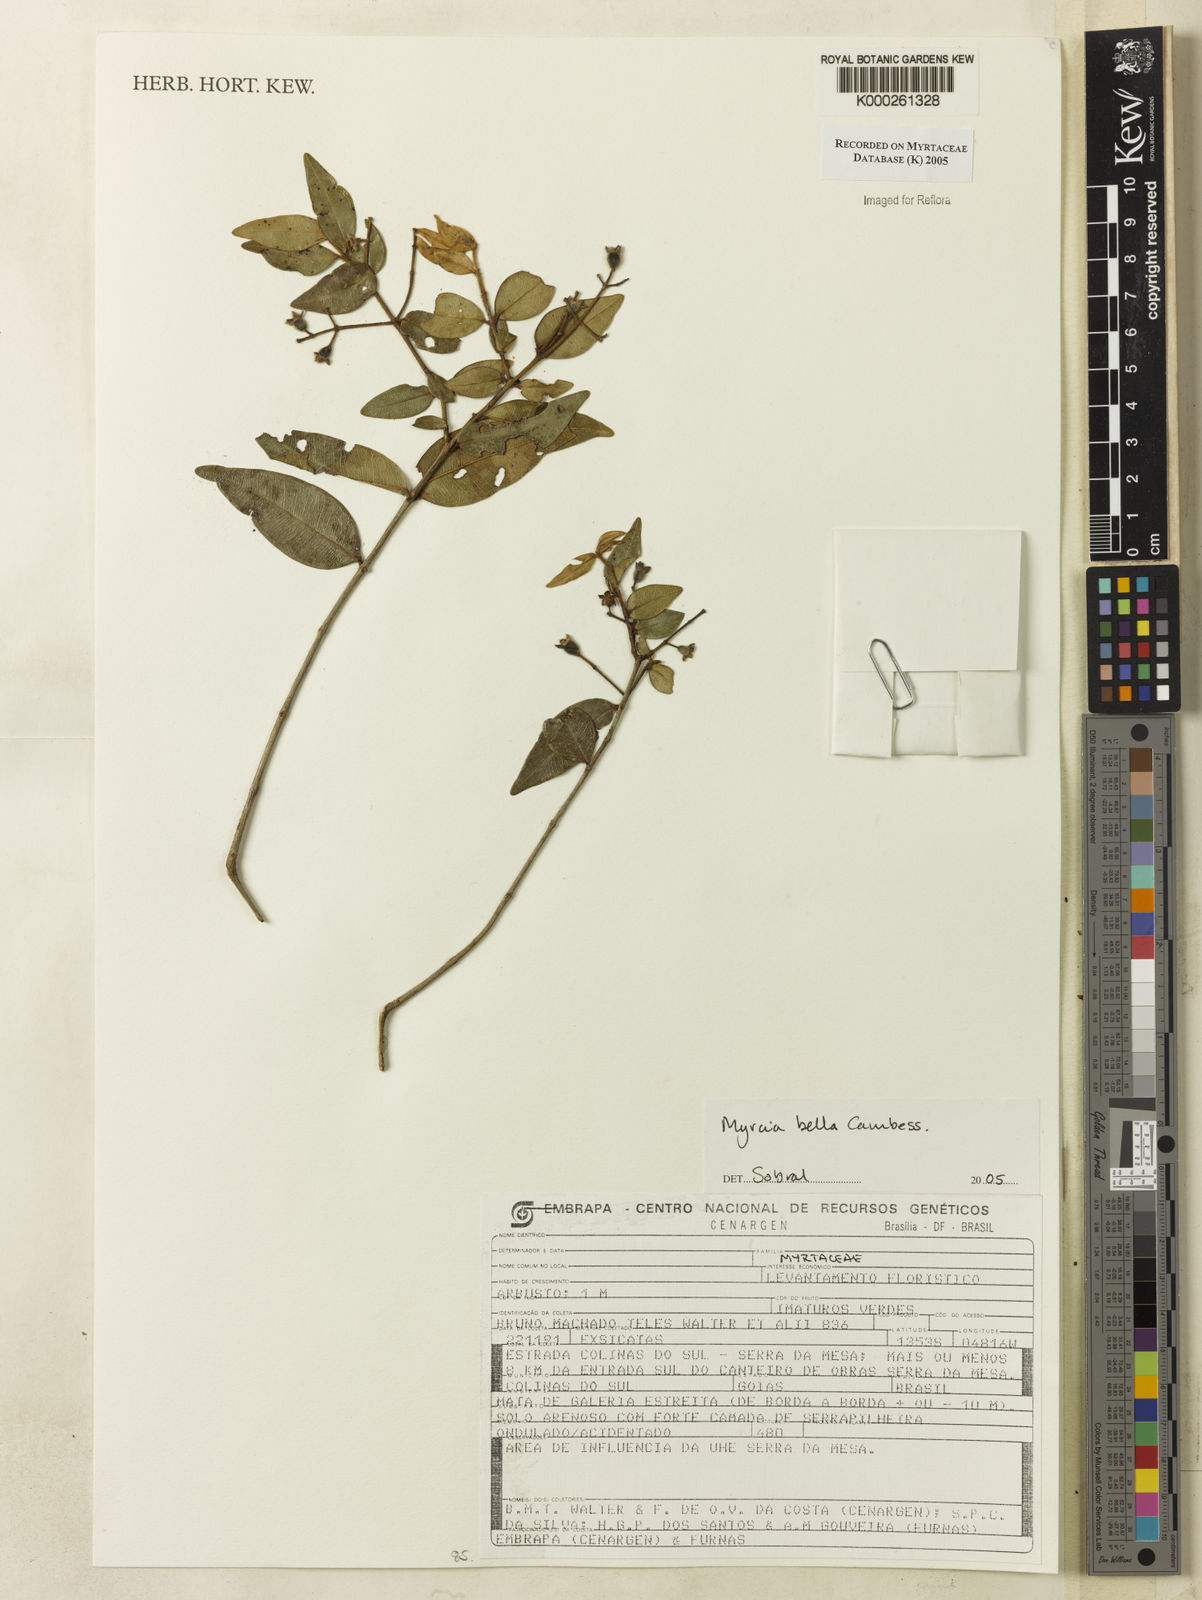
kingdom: Plantae
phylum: Tracheophyta
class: Magnoliopsida
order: Myrtales
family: Myrtaceae
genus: Myrcia
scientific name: Myrcia bella
